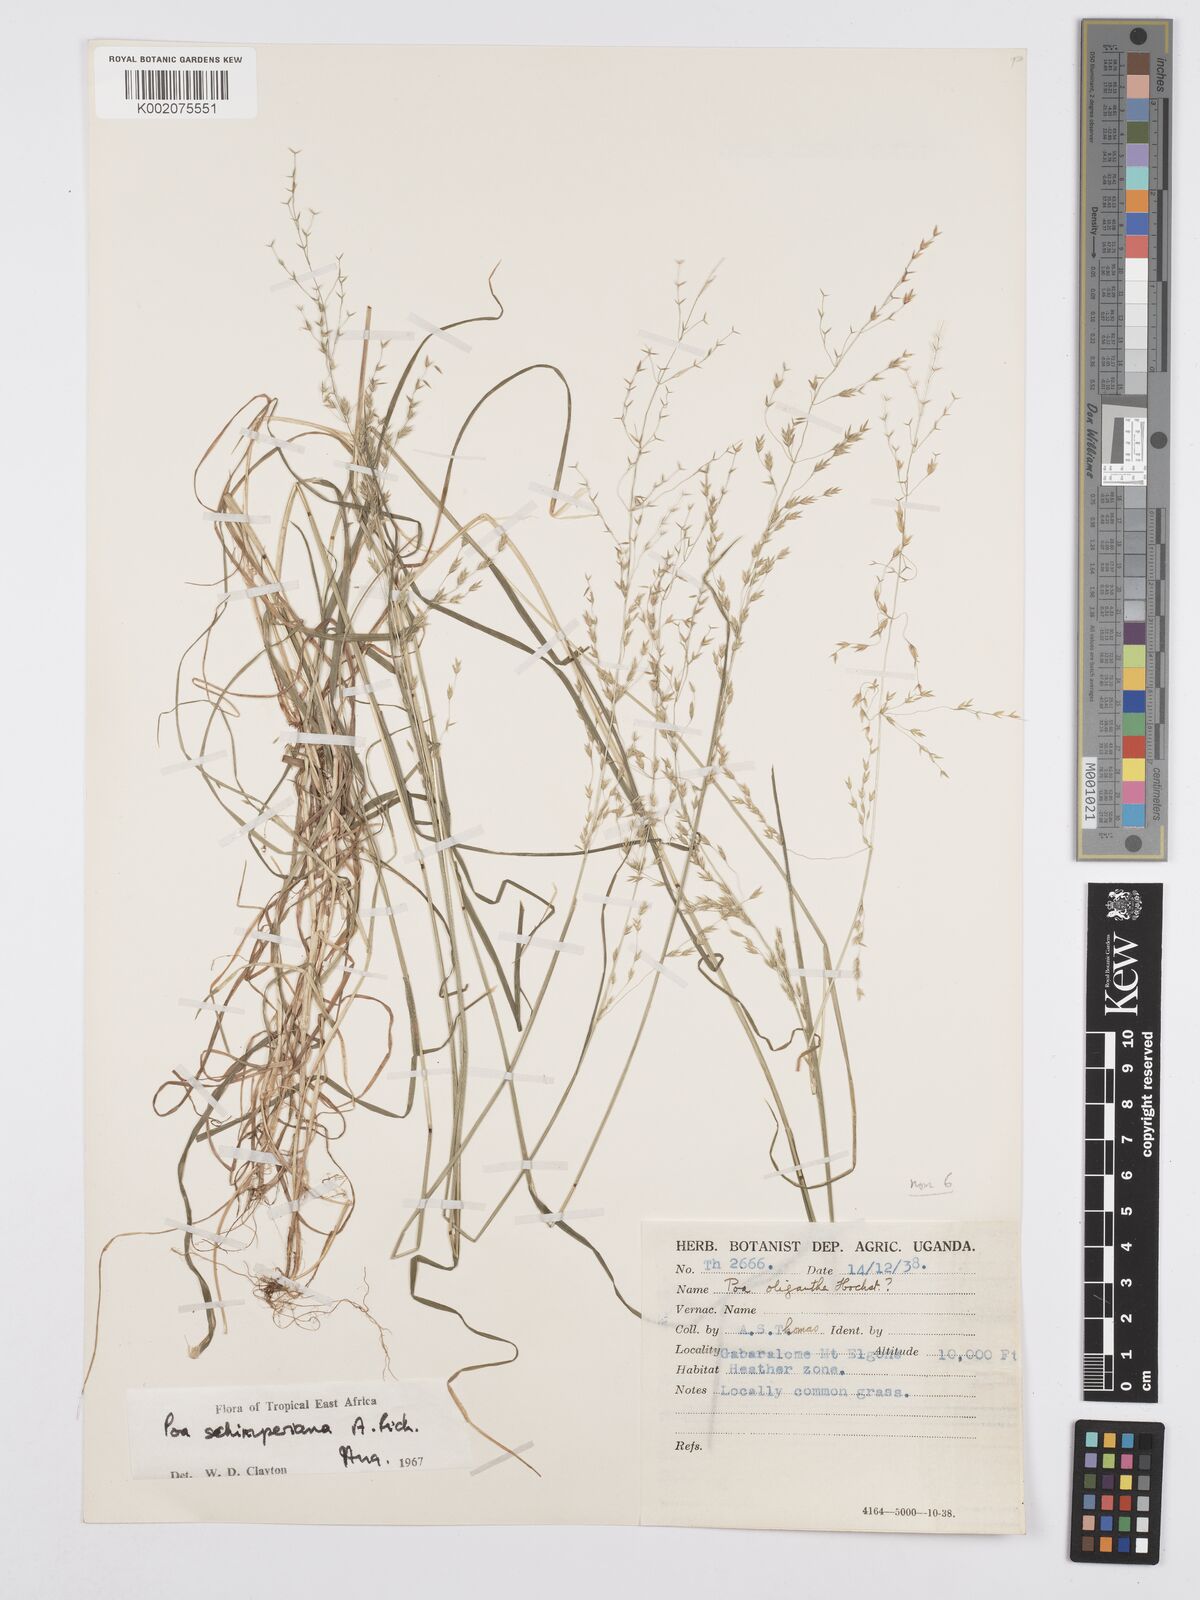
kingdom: Plantae
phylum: Tracheophyta
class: Liliopsida
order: Poales
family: Poaceae
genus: Poa
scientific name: Poa schimperiana
